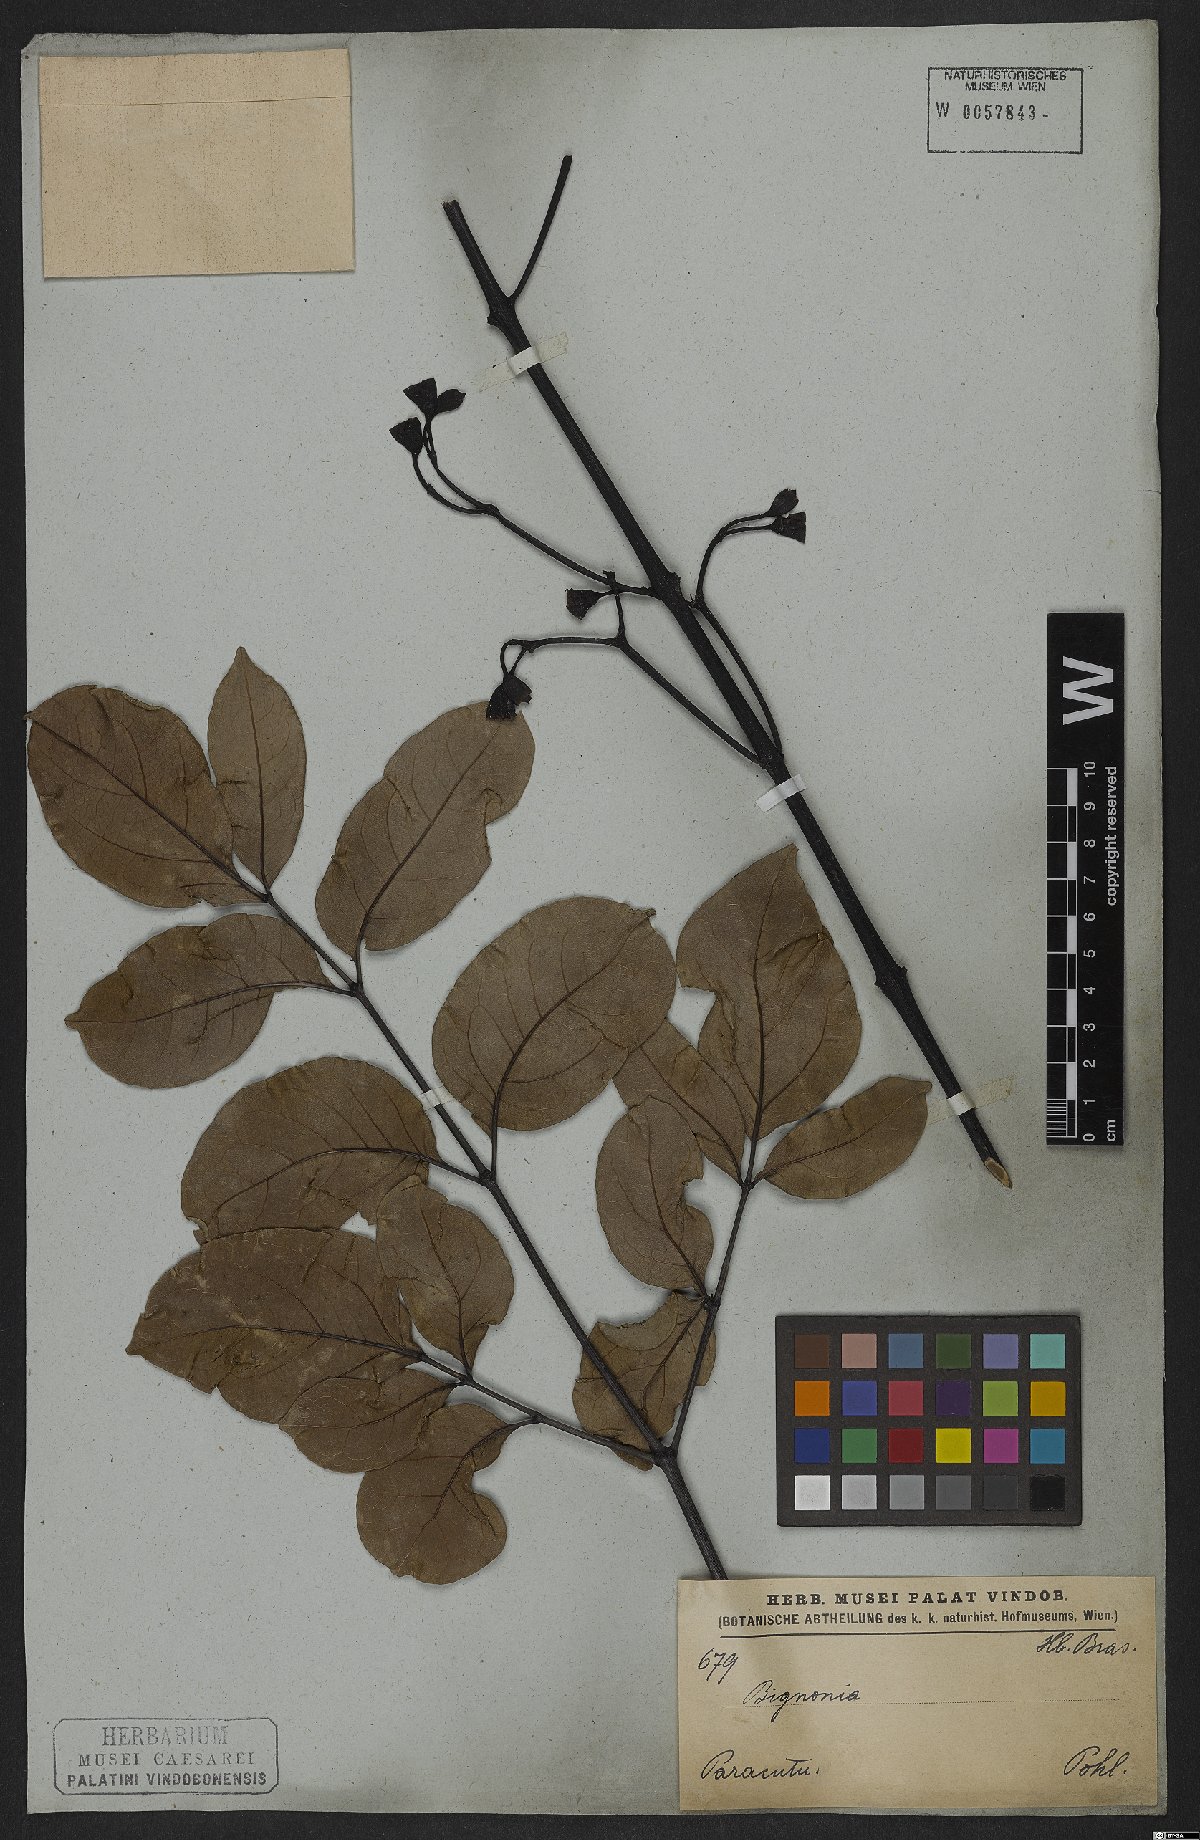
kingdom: Plantae
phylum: Tracheophyta
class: Magnoliopsida
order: Lamiales
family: Bignoniaceae
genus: Adenocalymma
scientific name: Adenocalymma pedunculatum
